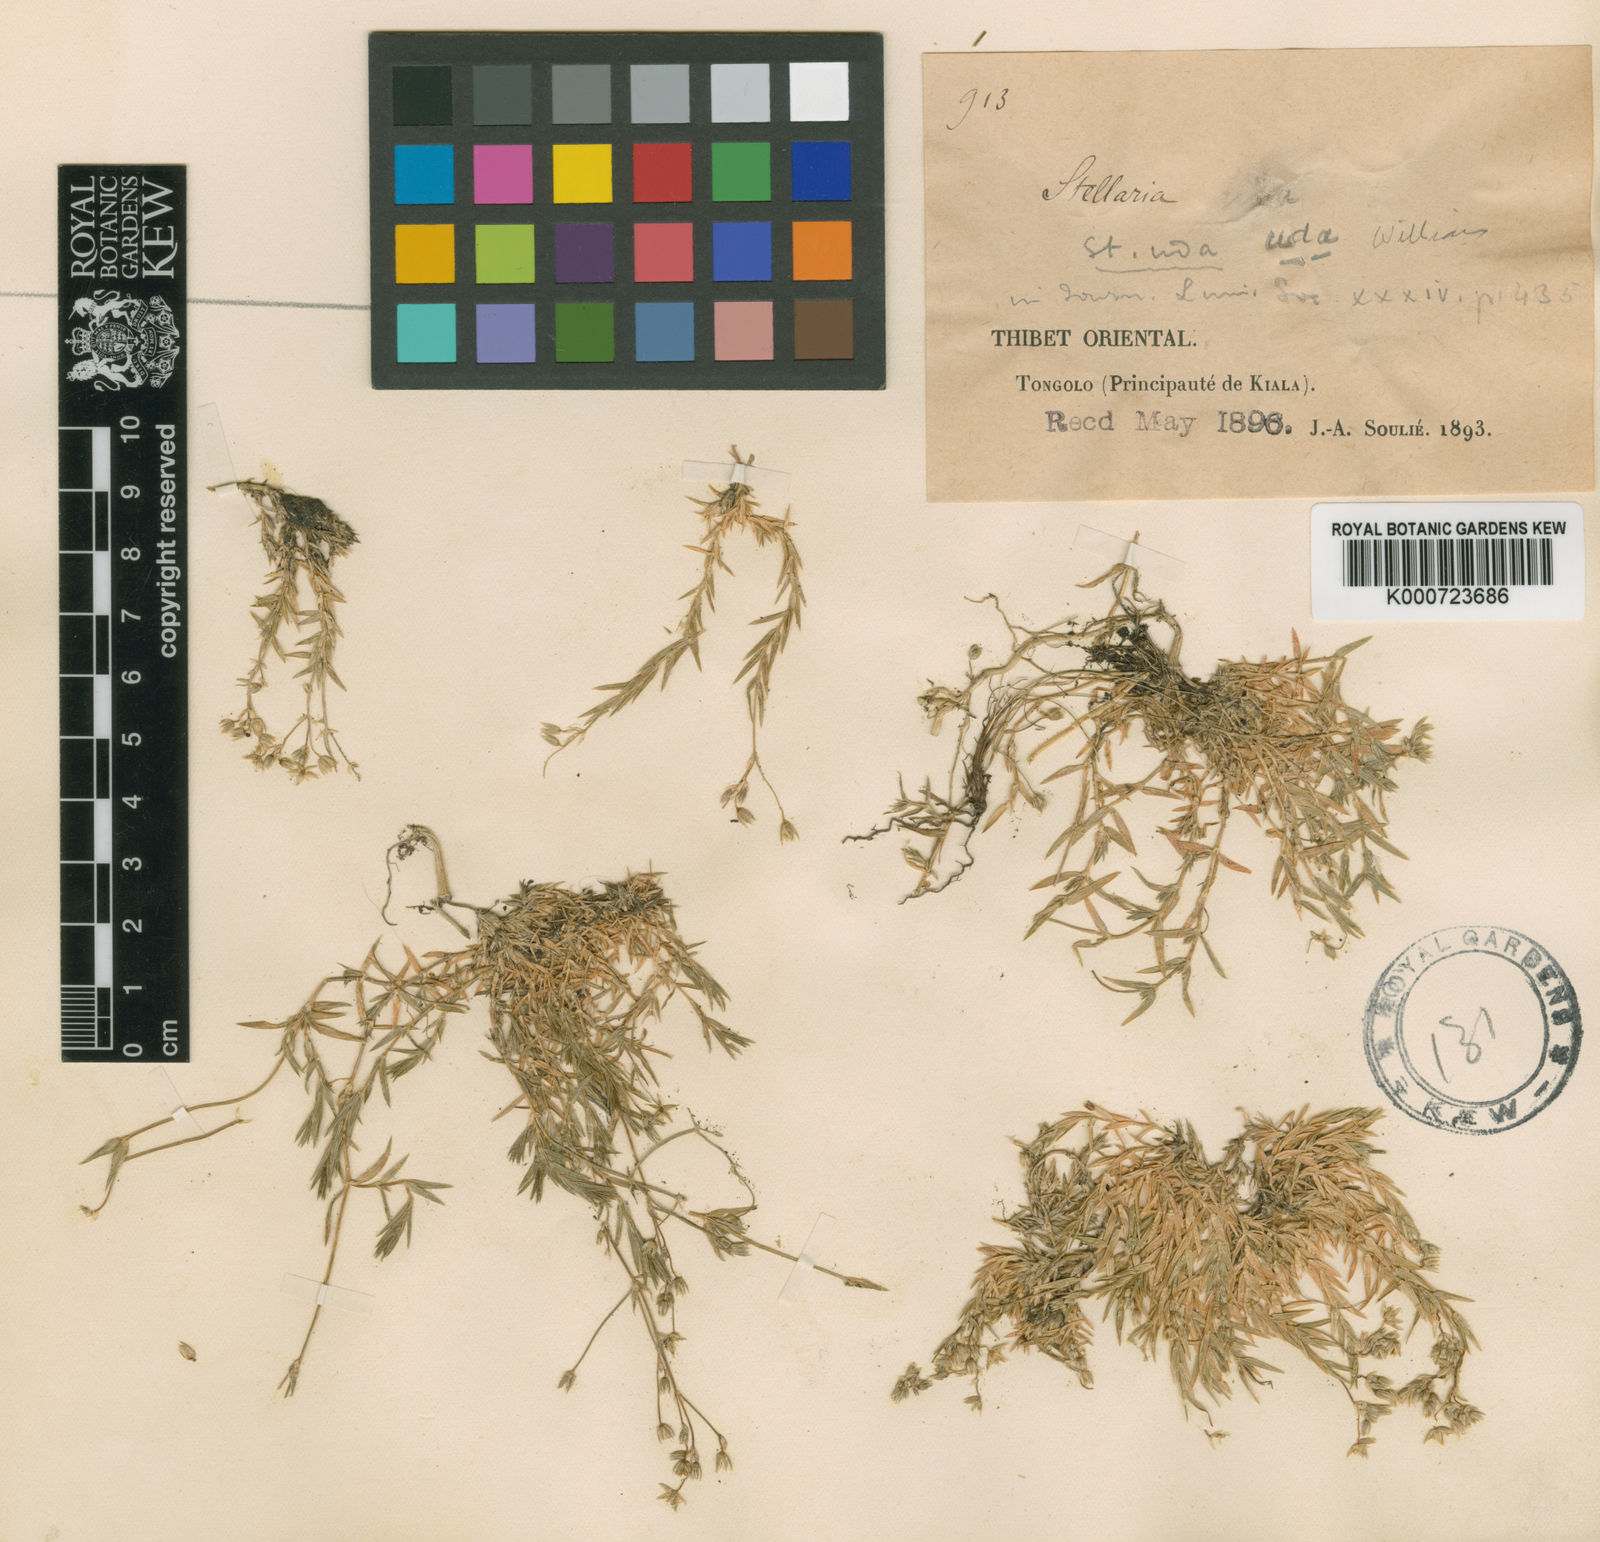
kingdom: Plantae
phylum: Tracheophyta
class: Magnoliopsida
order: Caryophyllales
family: Caryophyllaceae
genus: Stellaria
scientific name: Stellaria uda
